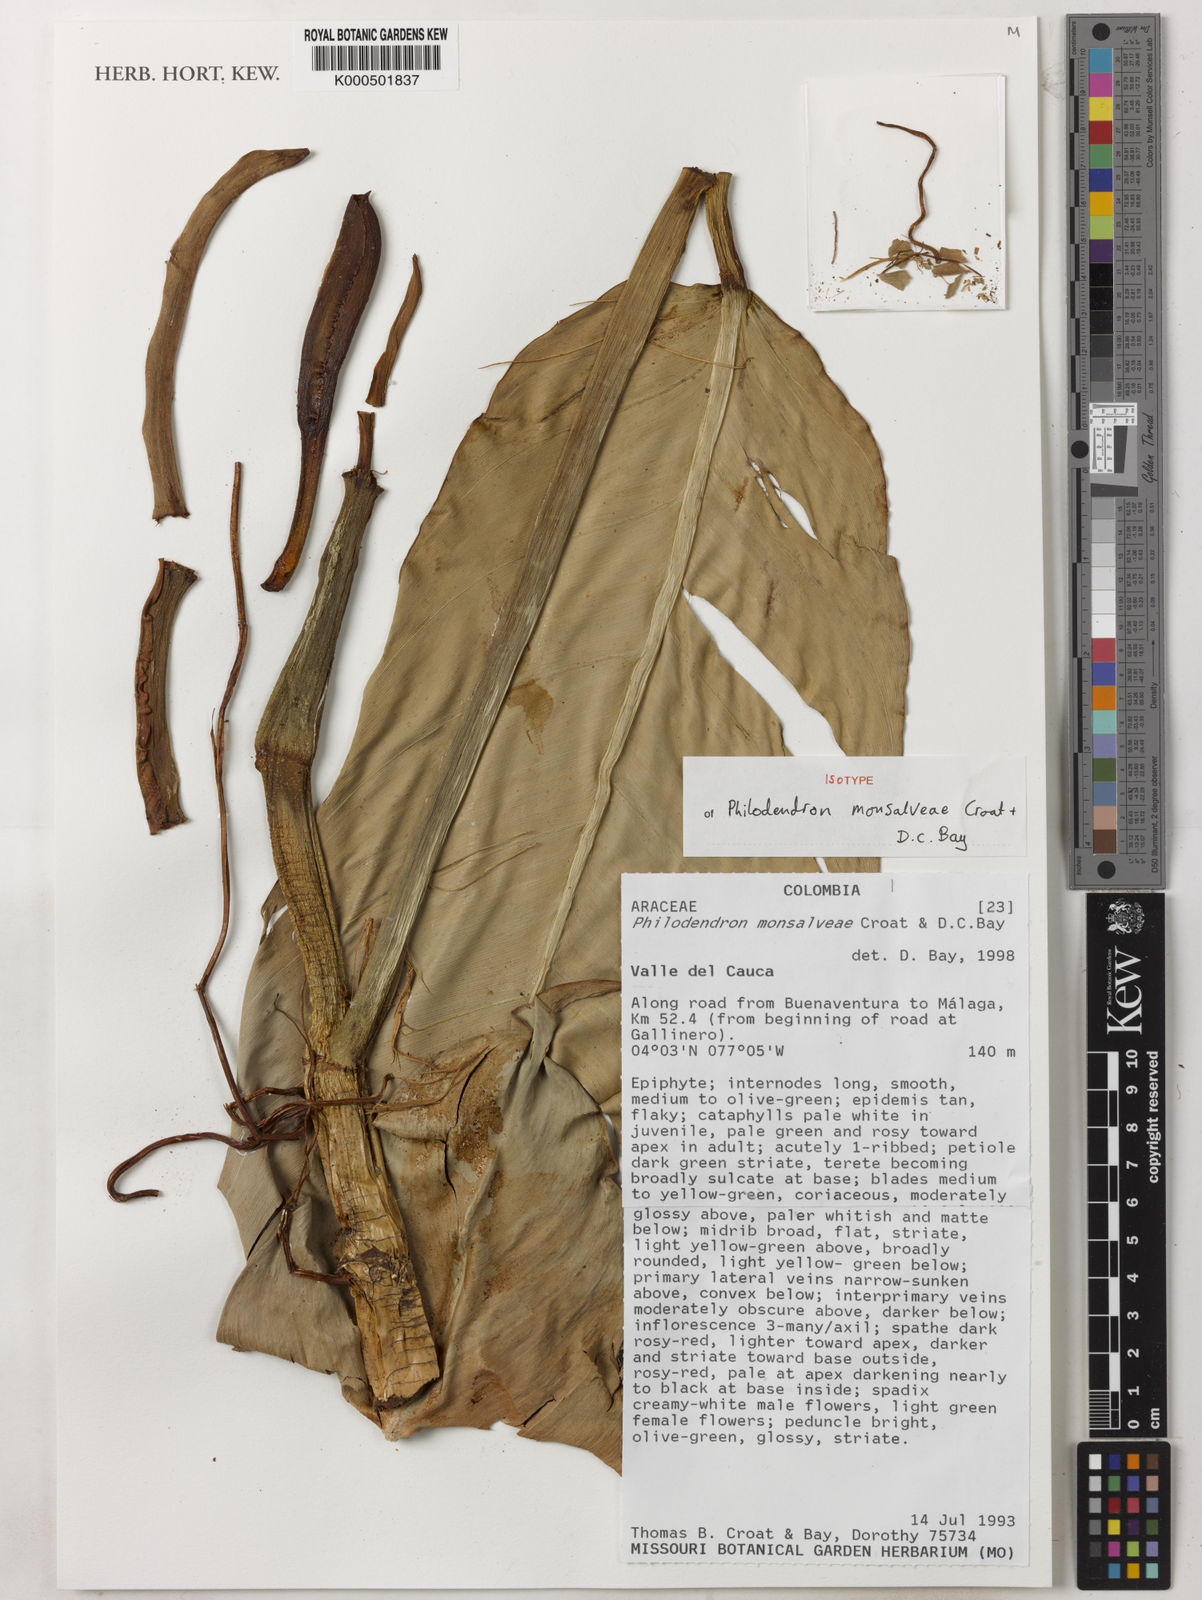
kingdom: Plantae
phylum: Tracheophyta
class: Liliopsida
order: Alismatales
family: Araceae
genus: Philodendron
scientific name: Philodendron monsalveae
